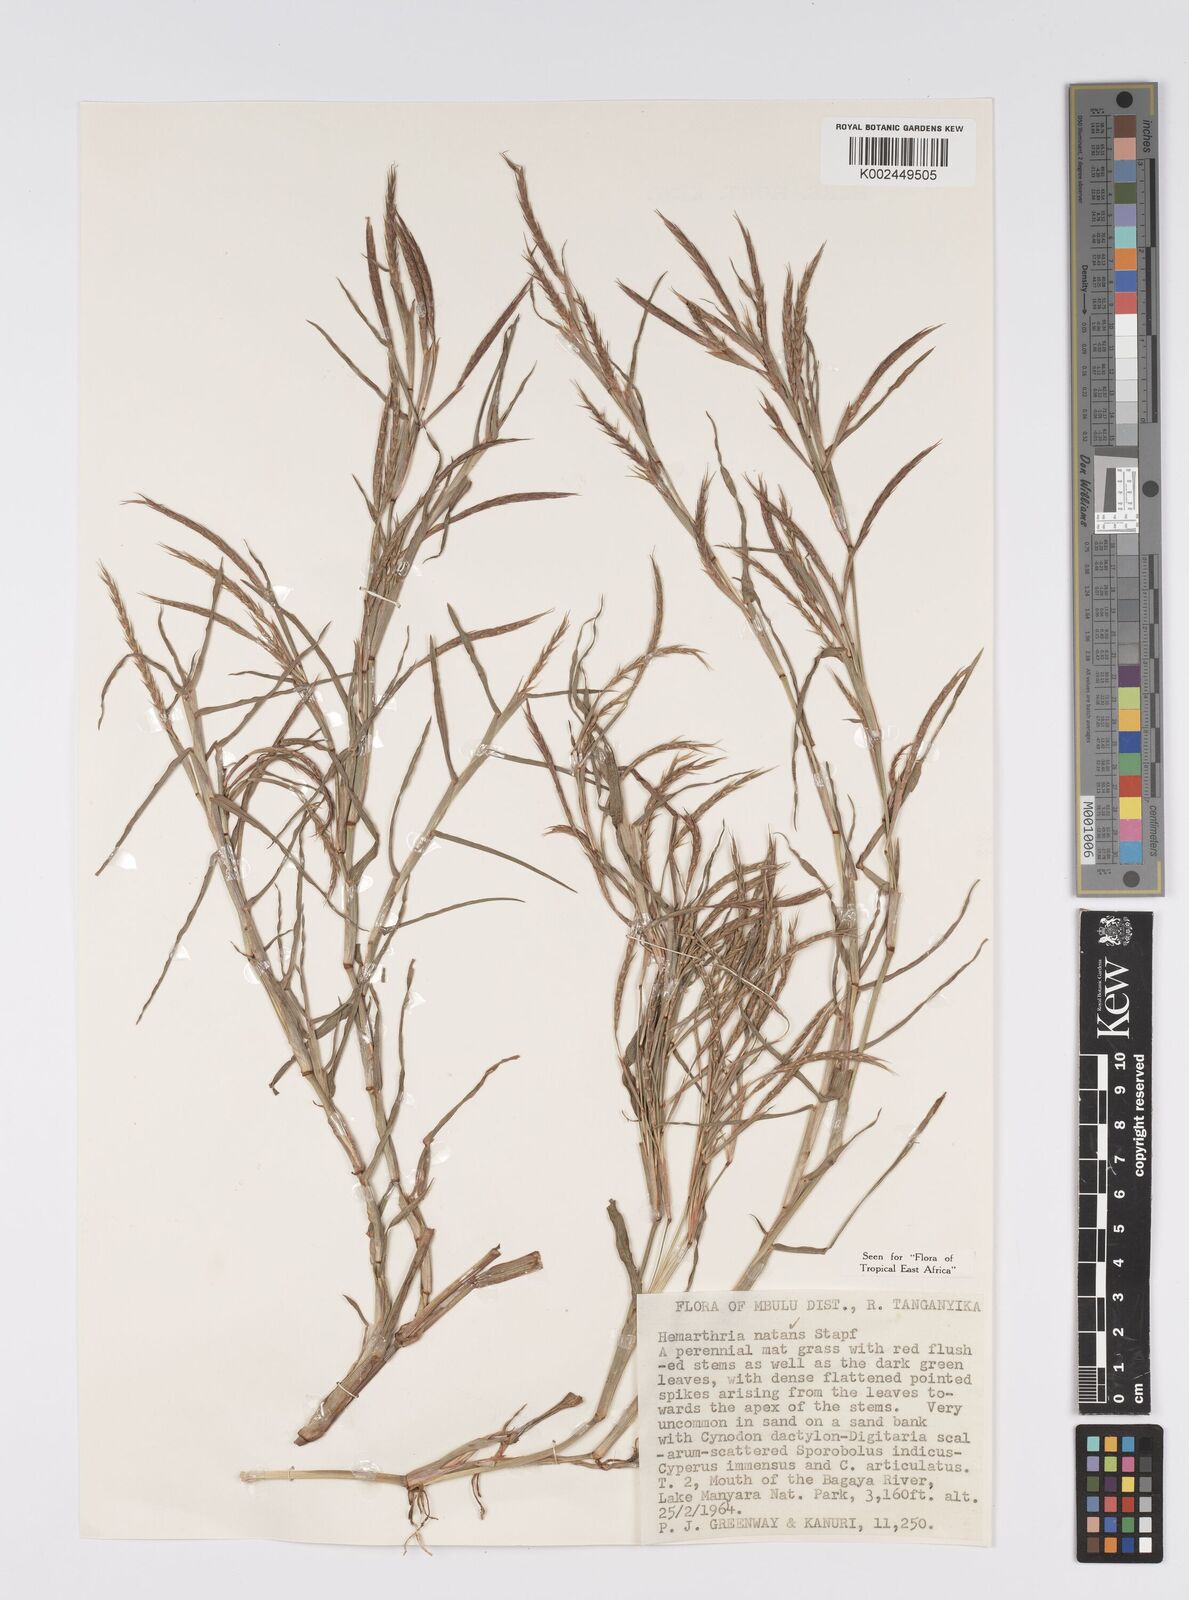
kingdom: Plantae
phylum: Tracheophyta
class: Liliopsida
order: Poales
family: Poaceae
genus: Hemarthria
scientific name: Hemarthria natans
